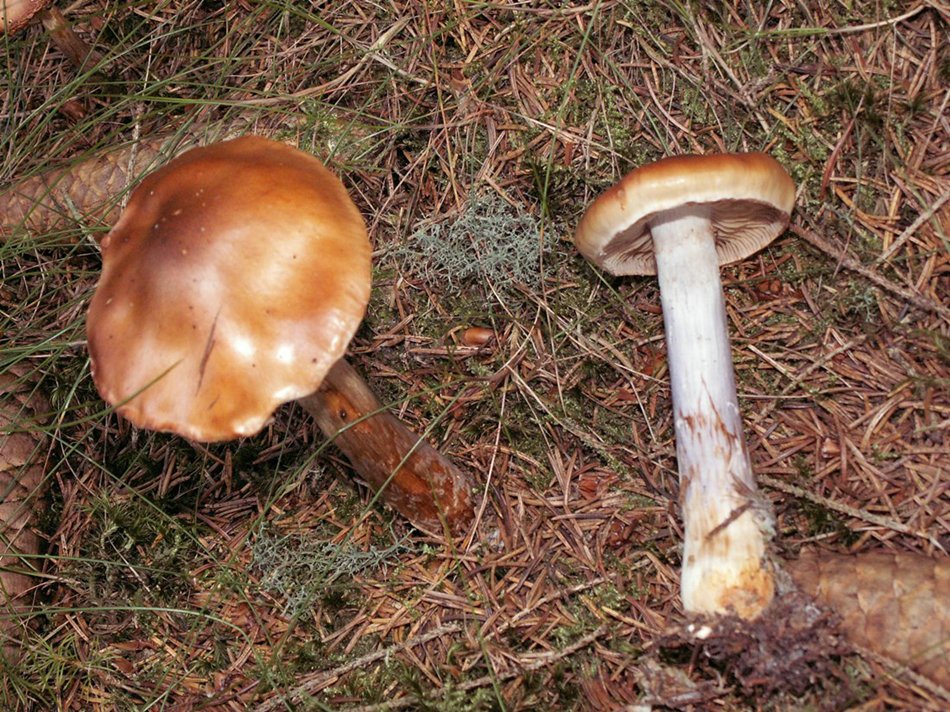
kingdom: Fungi
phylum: Basidiomycota
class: Agaricomycetes
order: Agaricales
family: Cortinariaceae
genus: Cortinarius
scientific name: Cortinarius collinitus
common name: spættet slørhat
